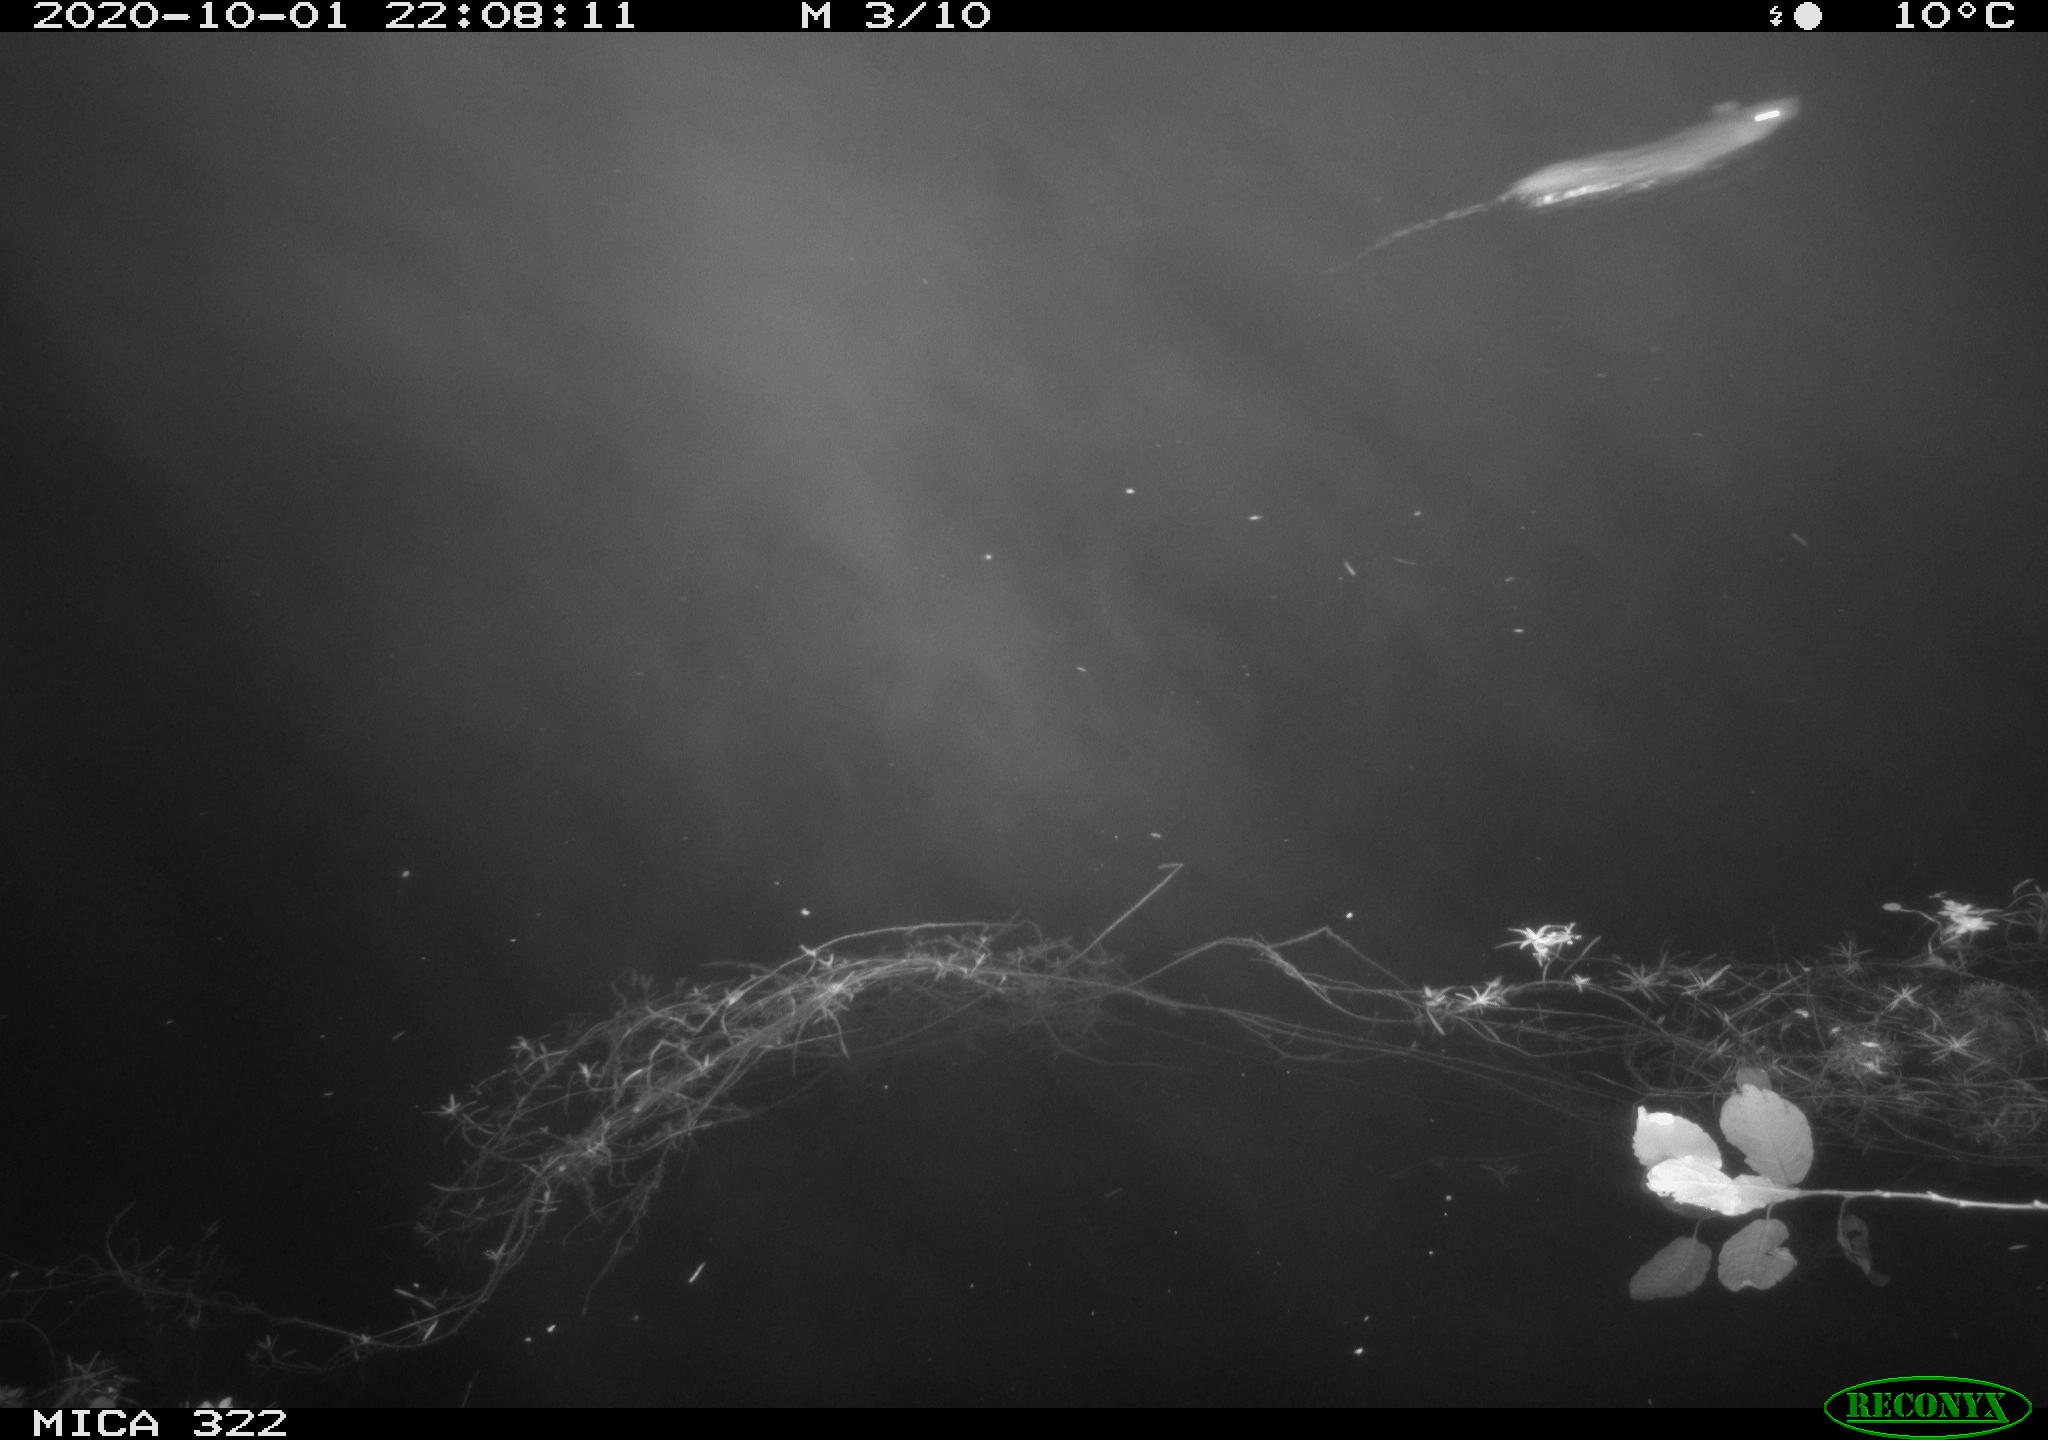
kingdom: Animalia
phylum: Chordata
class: Mammalia
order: Rodentia
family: Muridae
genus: Rattus
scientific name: Rattus norvegicus
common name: Brown rat
